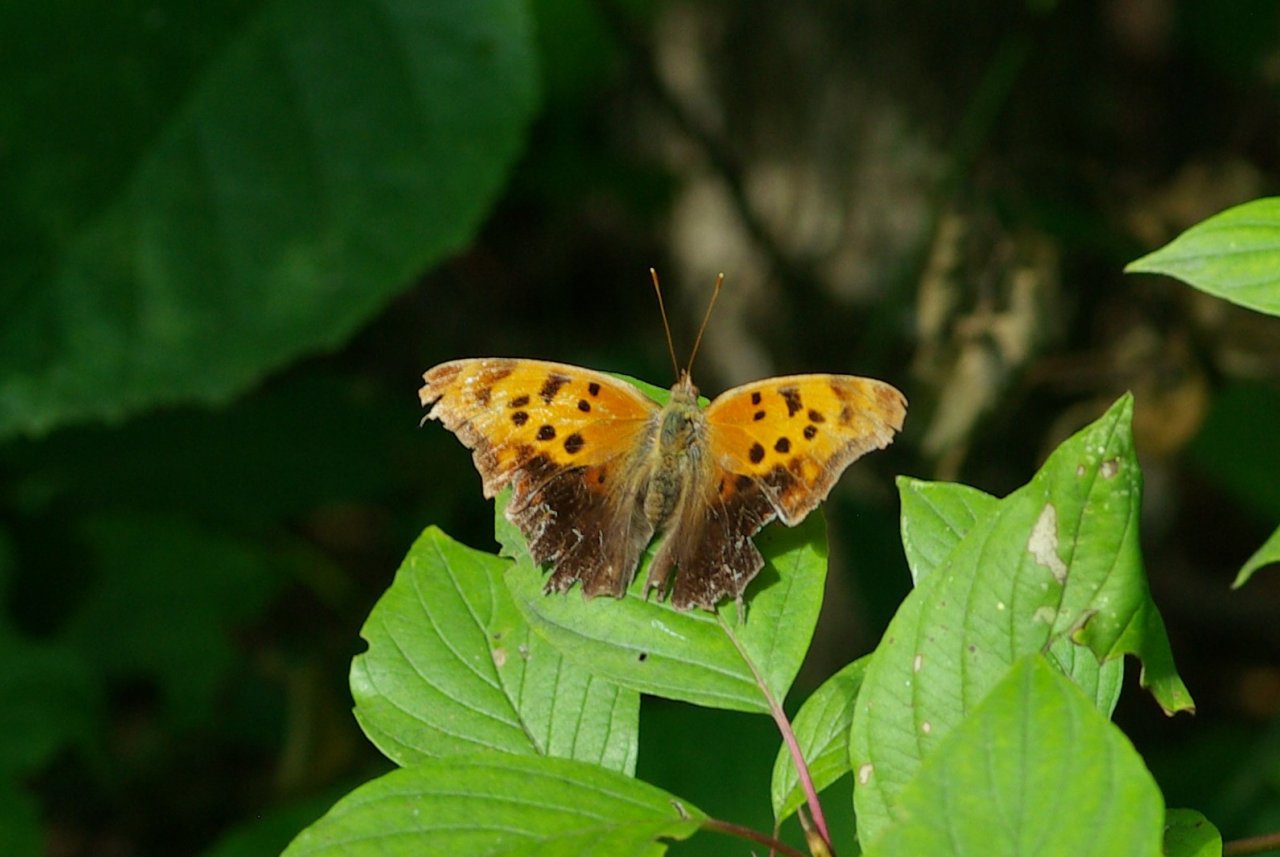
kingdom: Animalia
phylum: Arthropoda
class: Insecta
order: Lepidoptera
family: Nymphalidae
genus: Polygonia
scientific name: Polygonia interrogationis
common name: Question Mark
